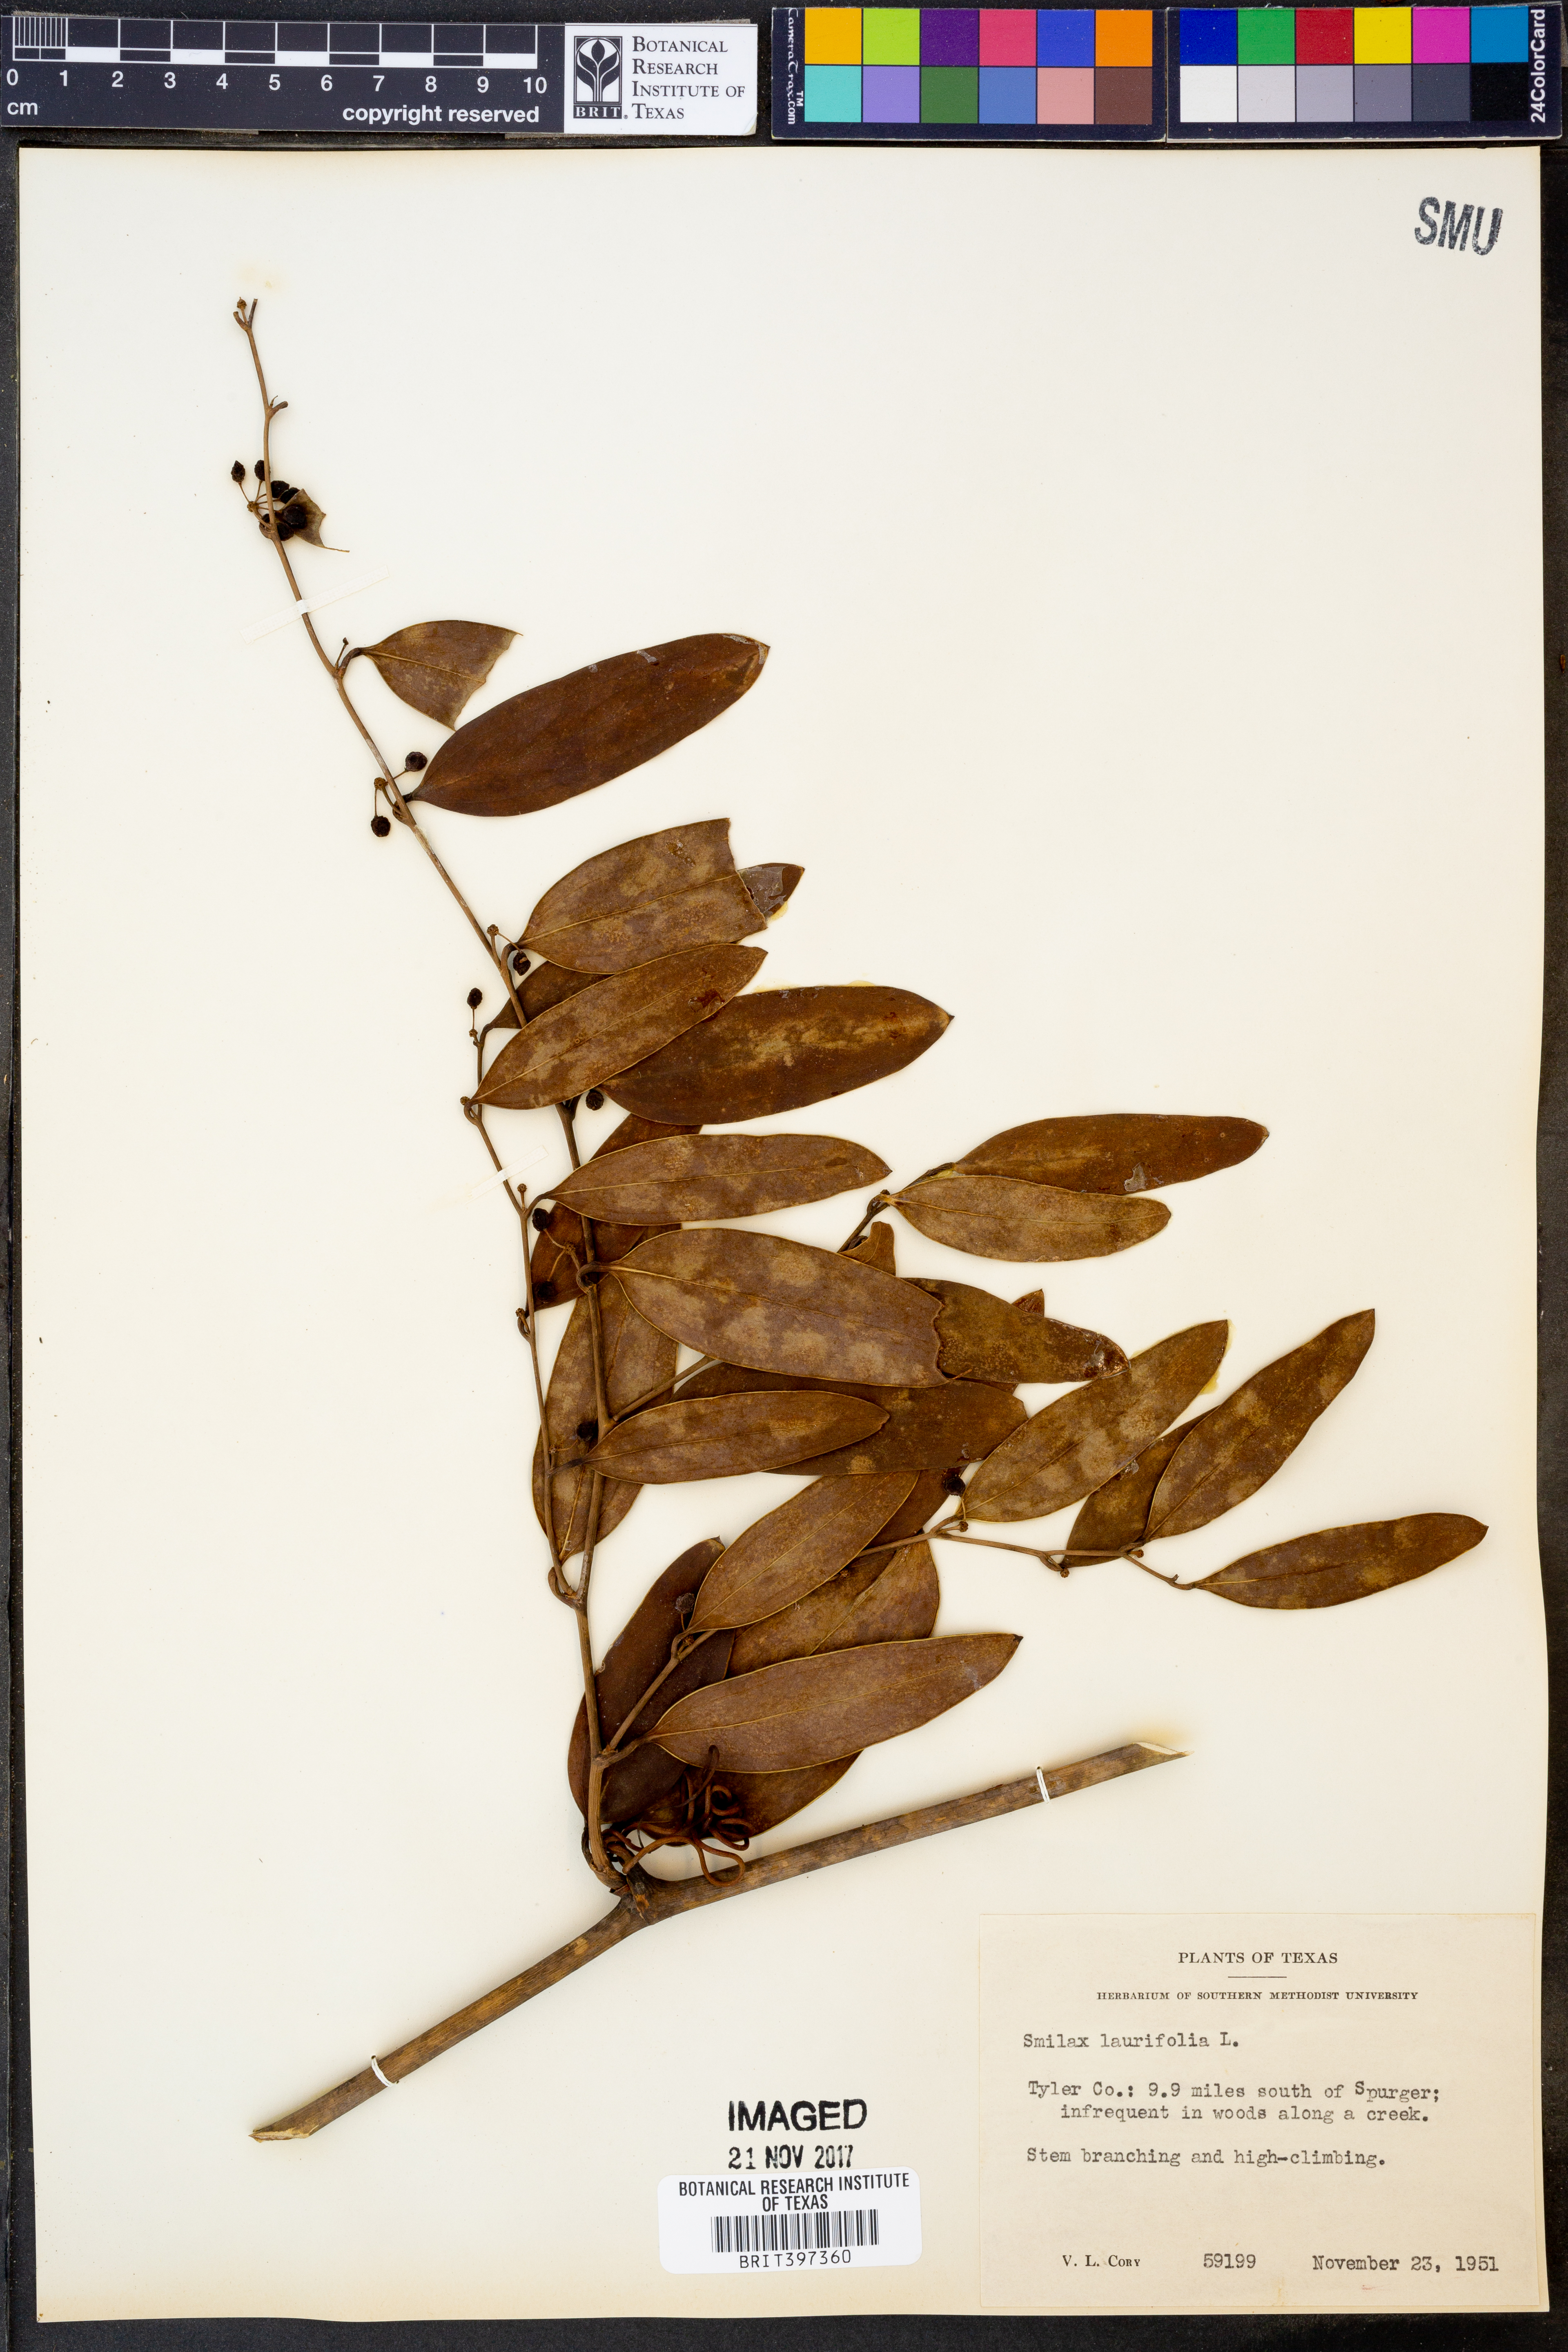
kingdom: Plantae
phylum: Tracheophyta
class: Liliopsida
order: Liliales
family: Smilacaceae
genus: Smilax
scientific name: Smilax laurifolia
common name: Bamboovine
